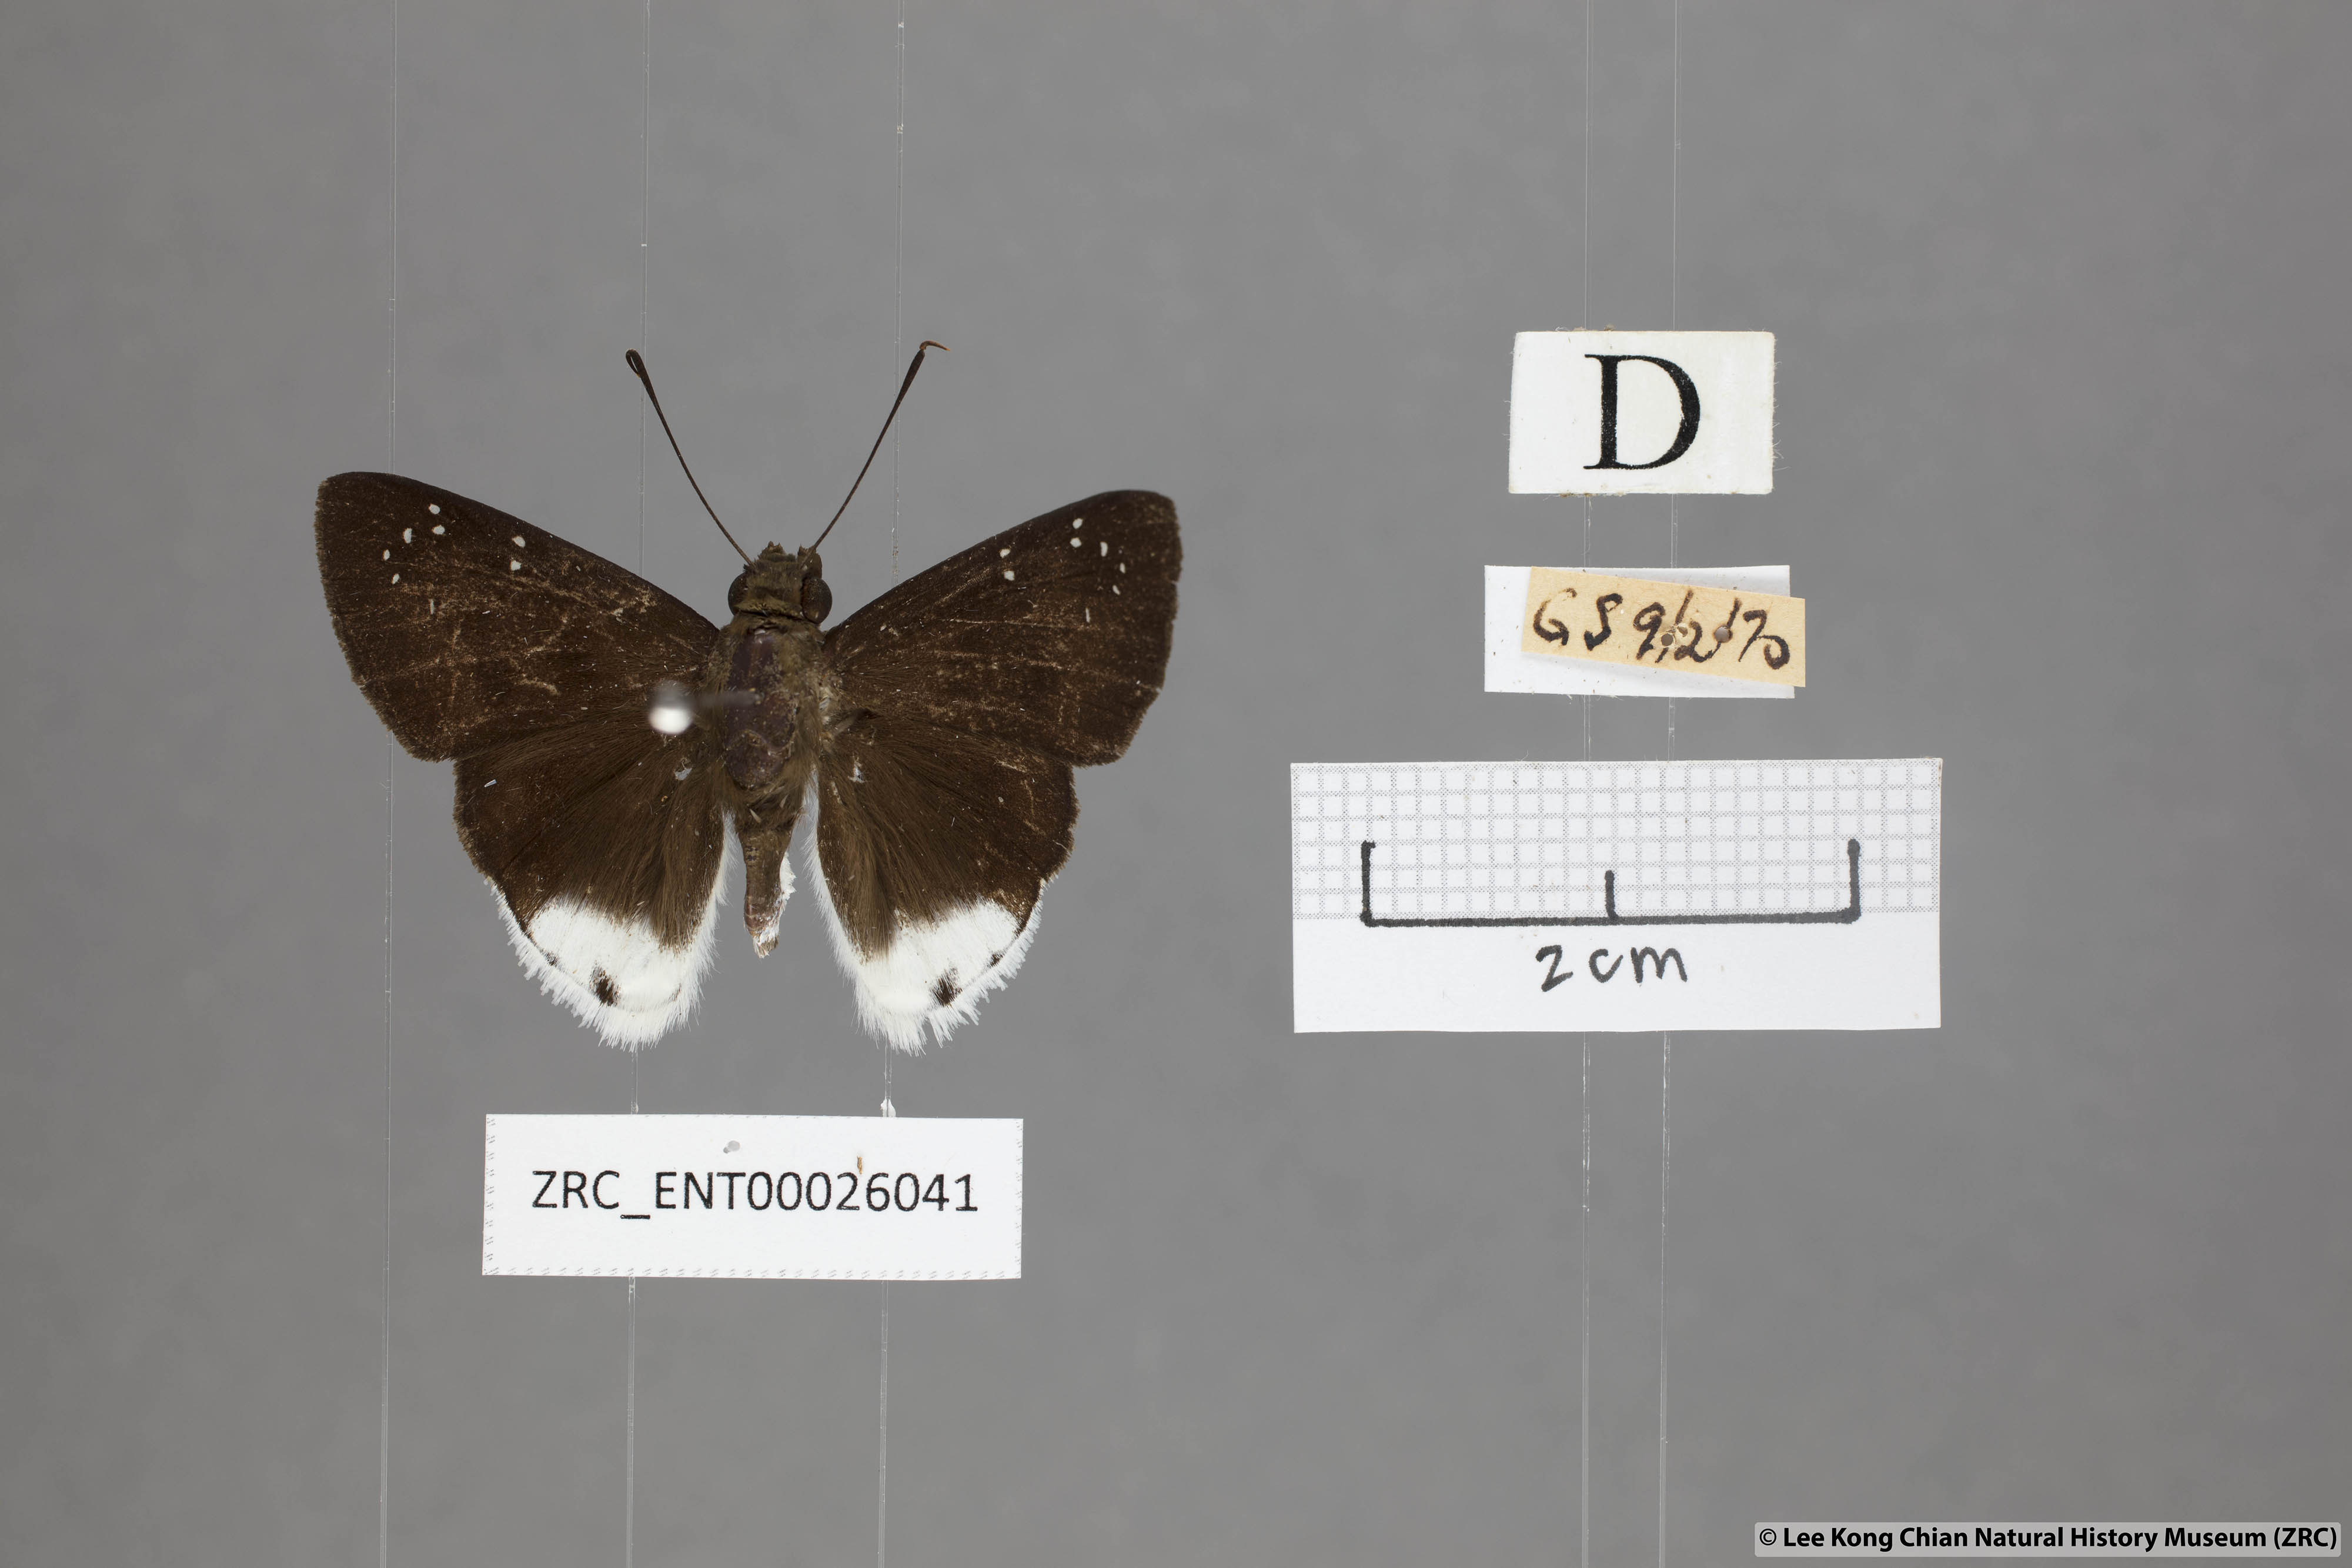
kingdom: Animalia
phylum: Arthropoda
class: Insecta
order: Lepidoptera
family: Hesperiidae
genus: Tagiades
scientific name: Tagiades toba
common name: Different-spotted snow flat
